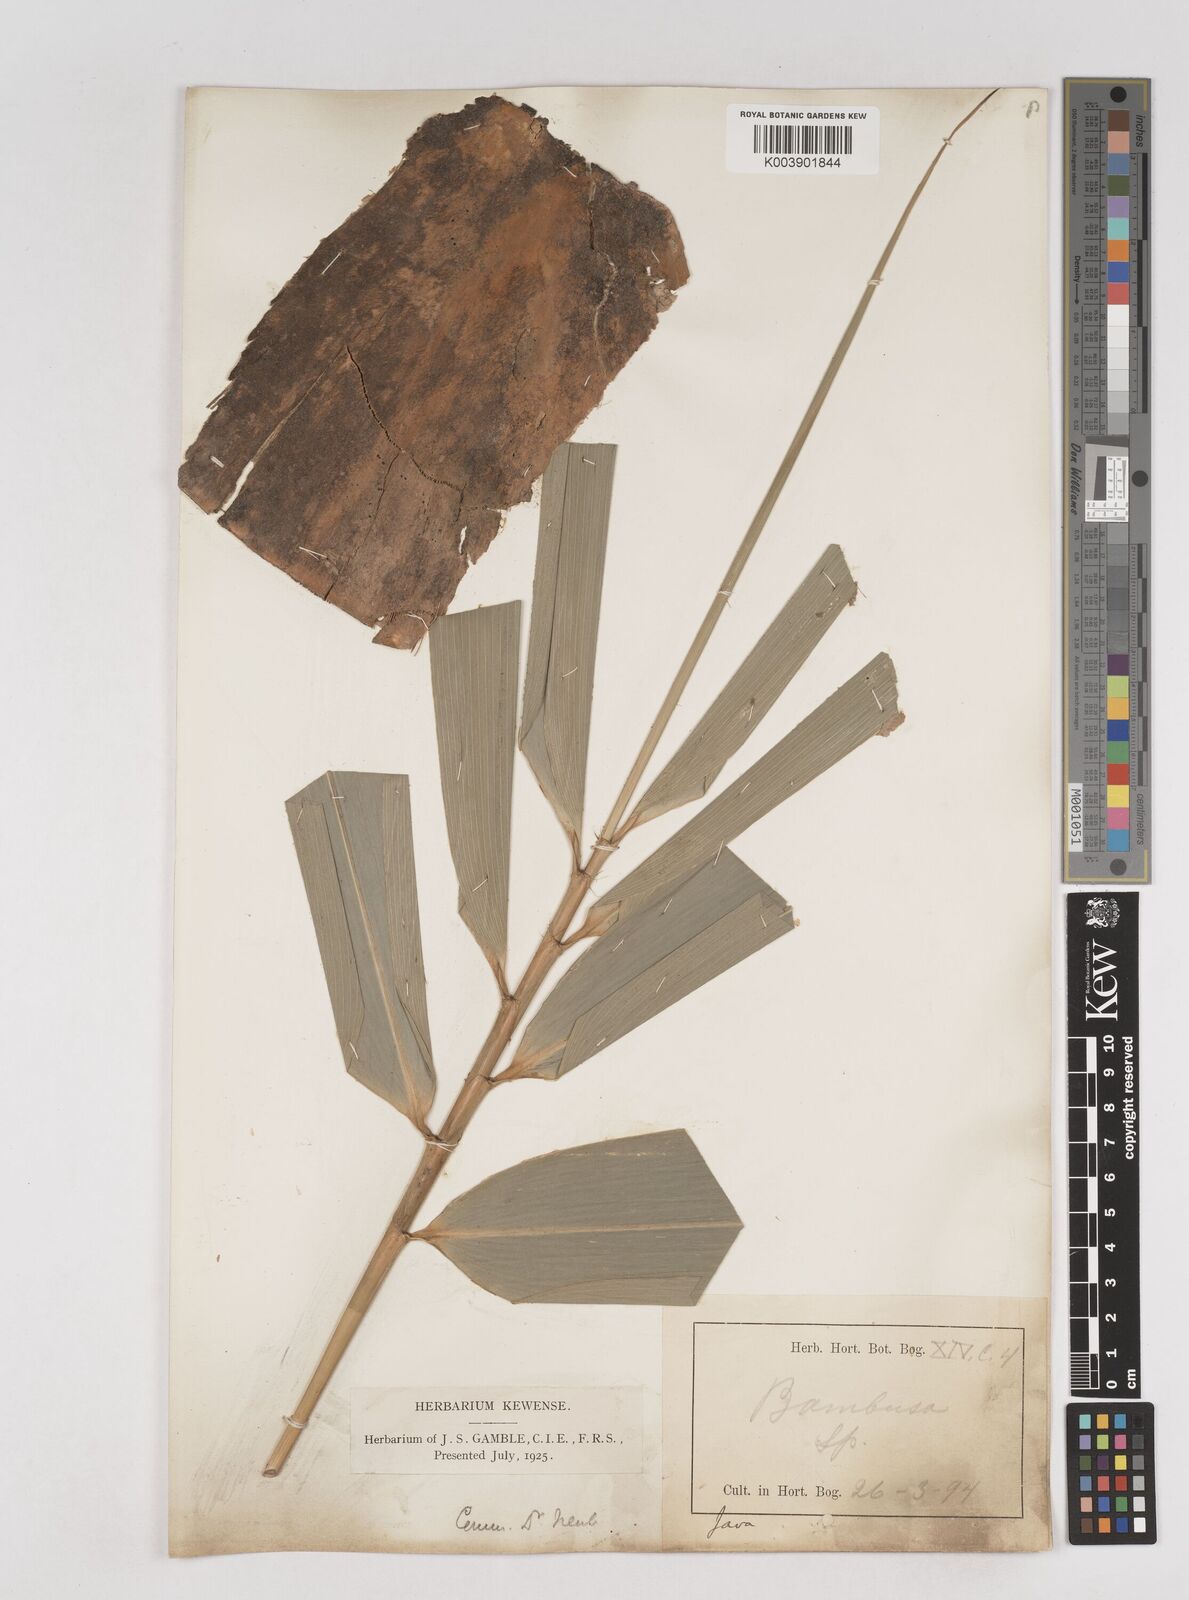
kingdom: Plantae
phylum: Tracheophyta
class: Liliopsida
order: Poales
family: Poaceae
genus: Schizostachyum
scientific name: Schizostachyum brachycladum
